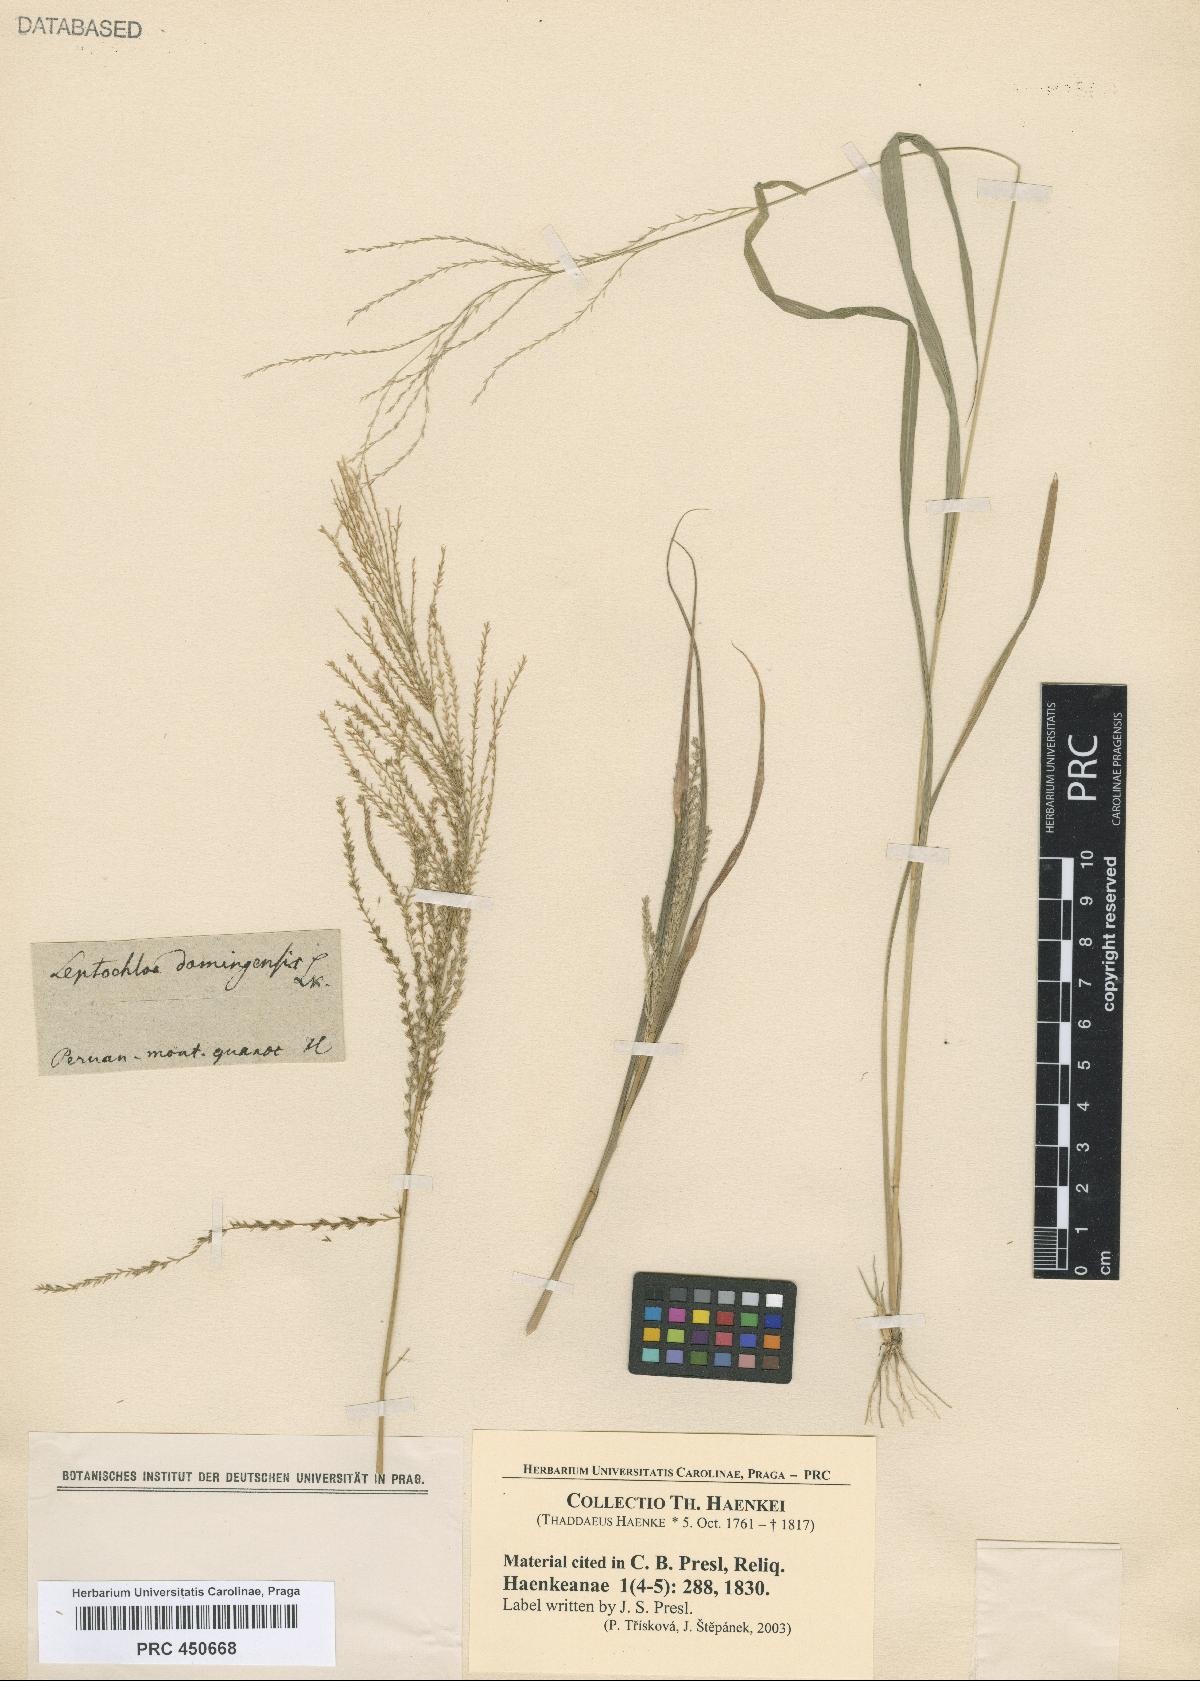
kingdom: Plantae
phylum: Tracheophyta
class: Liliopsida
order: Poales
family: Poaceae
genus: Leptochloa
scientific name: Leptochloa
